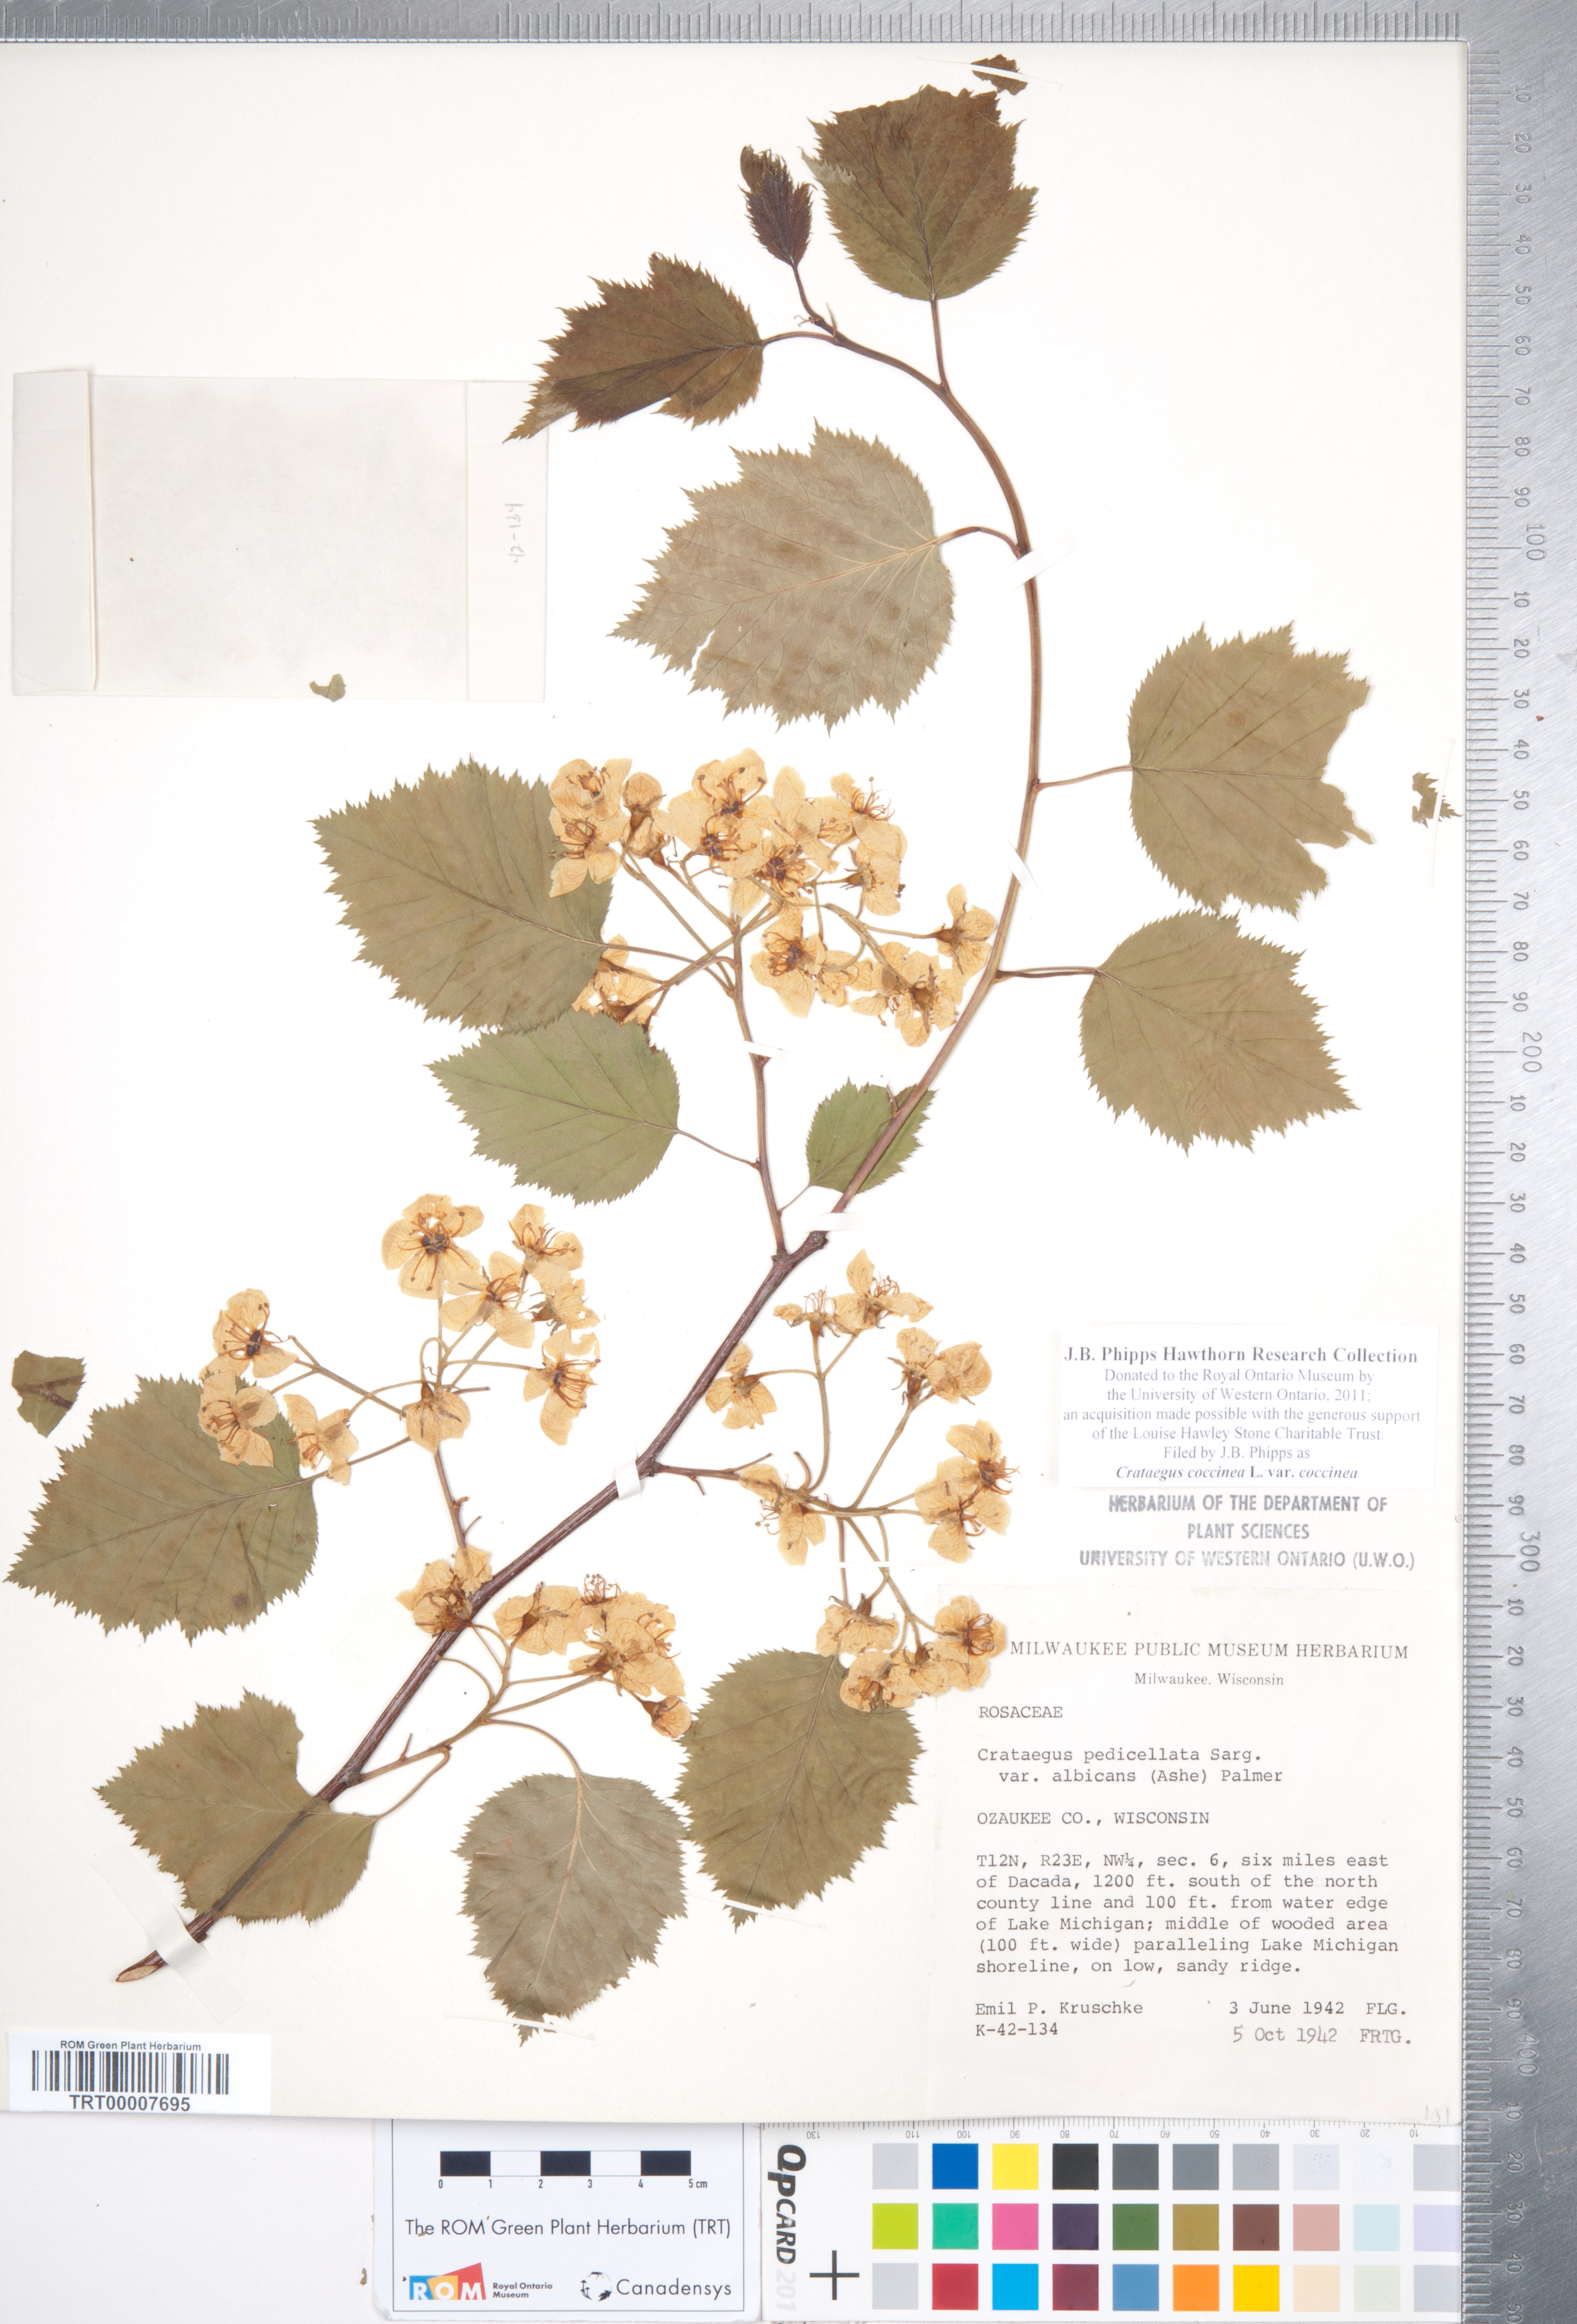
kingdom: Plantae
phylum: Tracheophyta
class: Magnoliopsida
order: Rosales
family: Rosaceae
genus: Crataegus
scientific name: Crataegus coccinea
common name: Scarlet hawthorn
